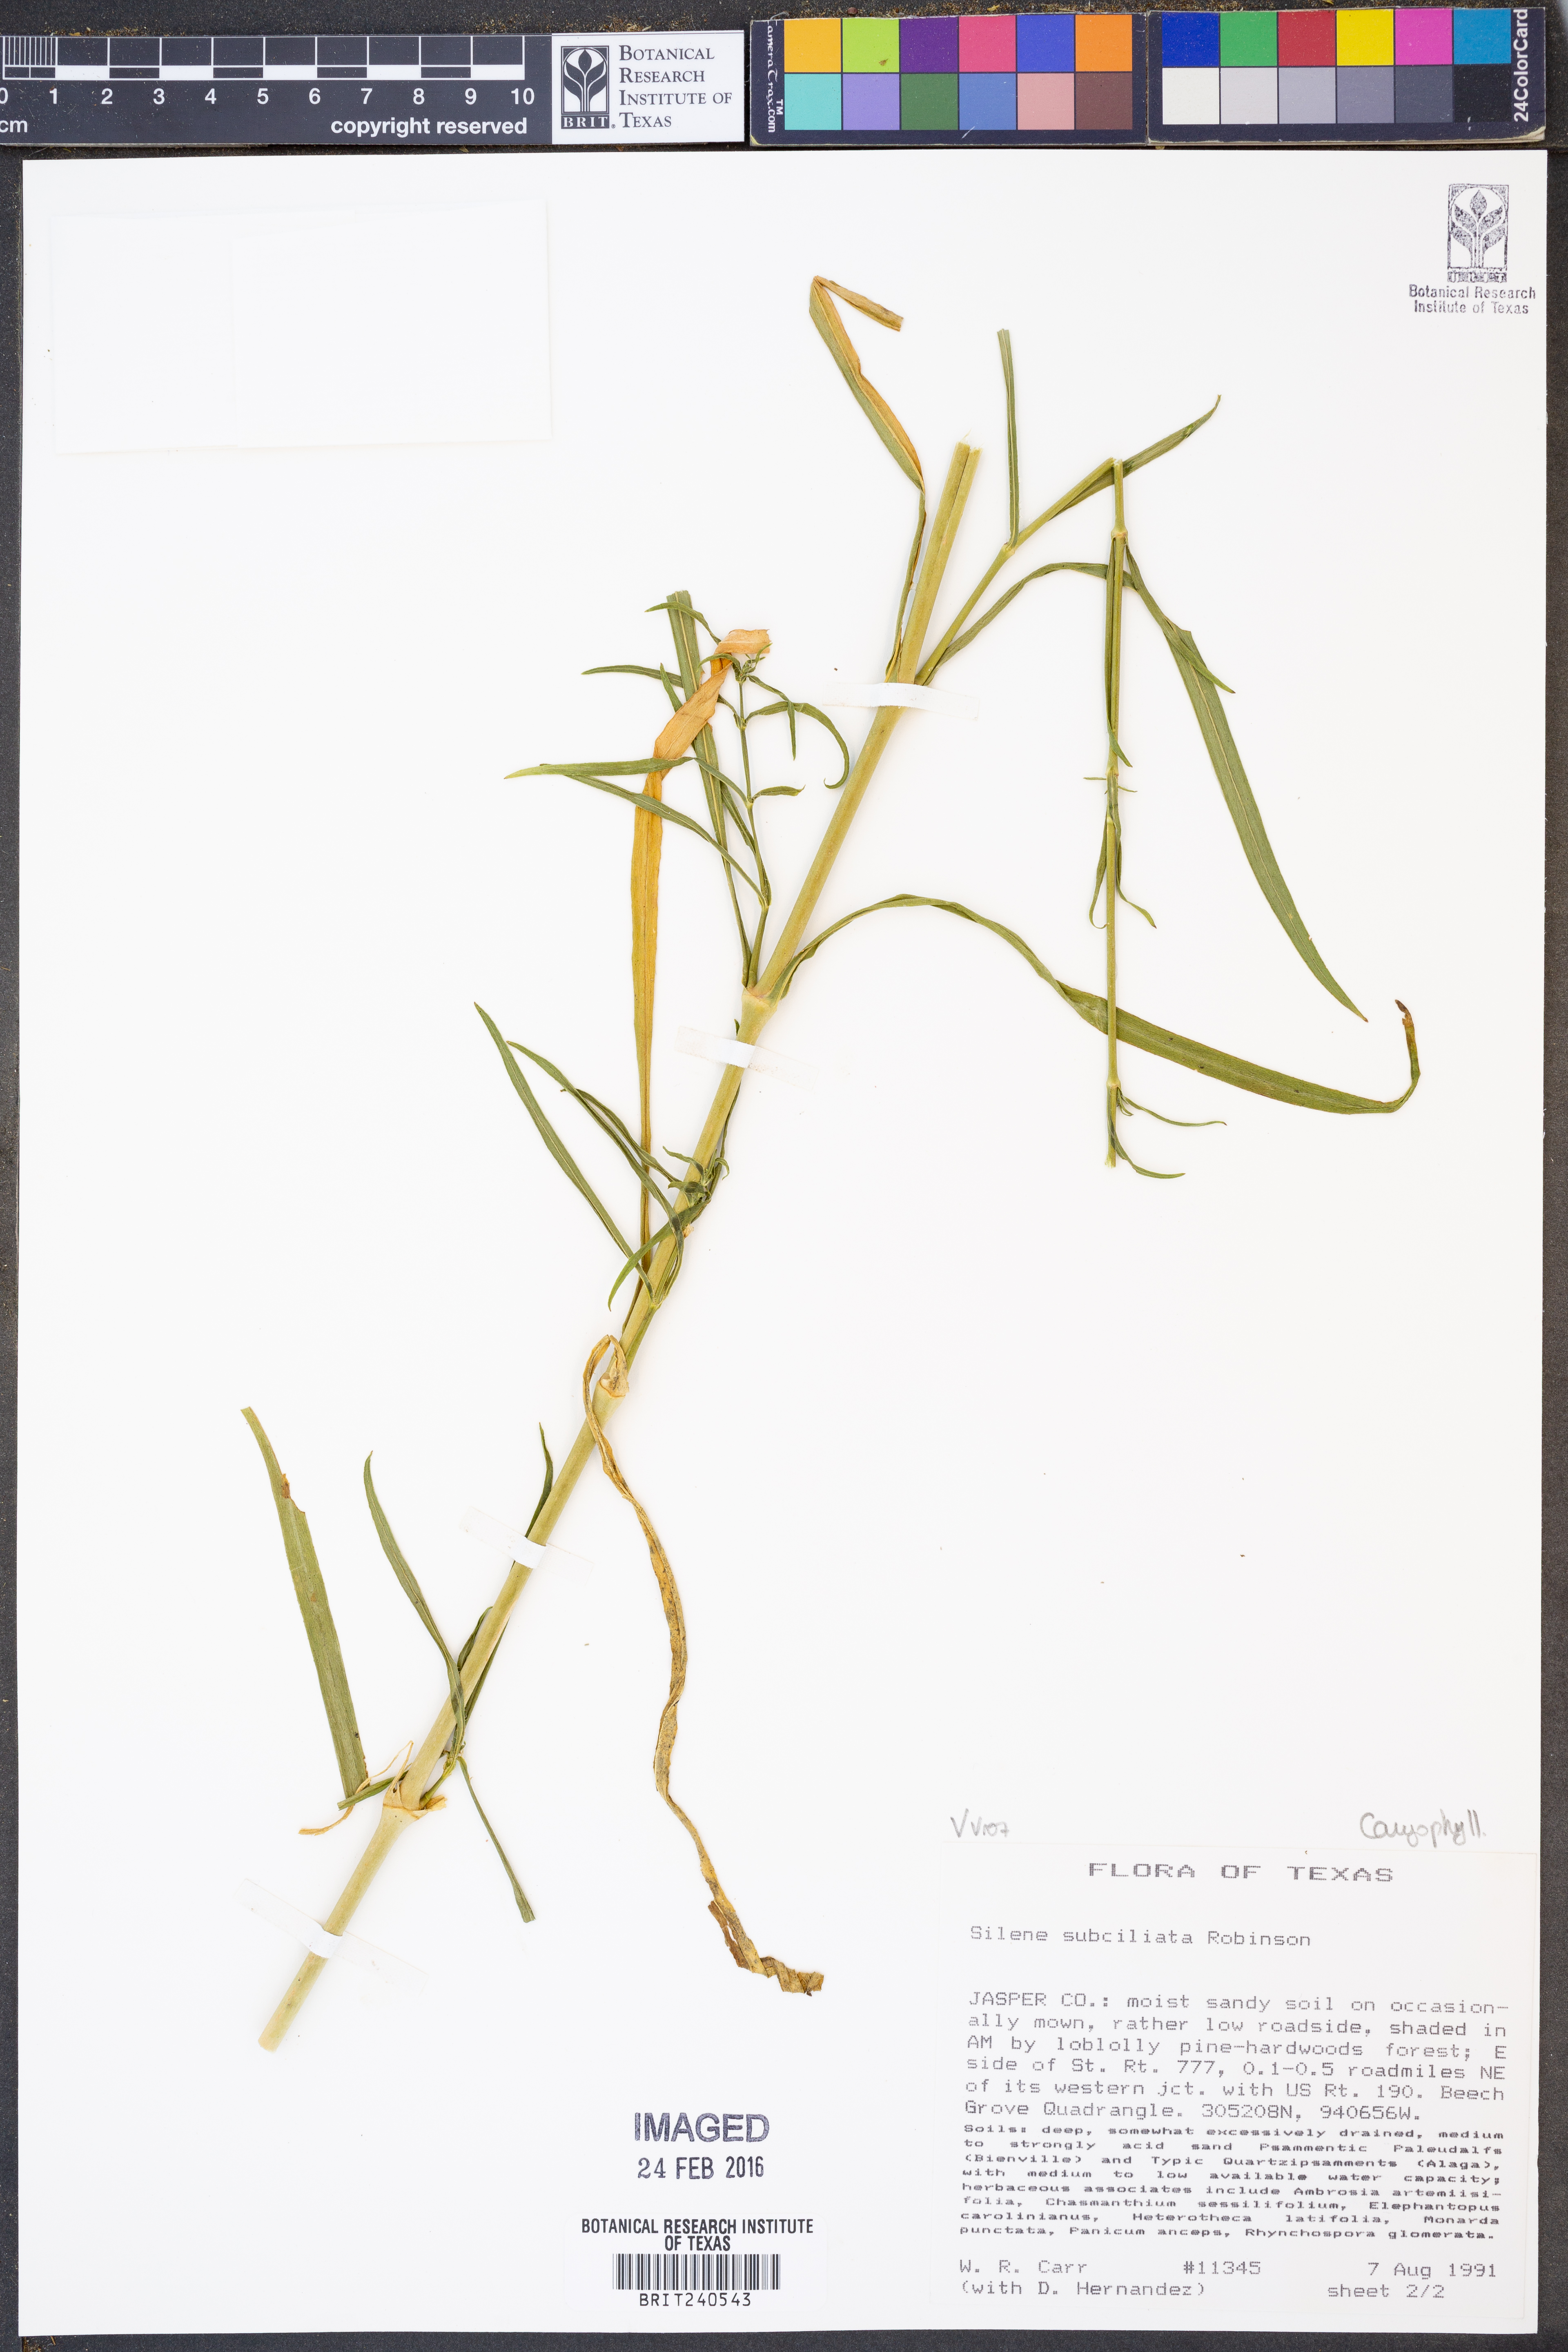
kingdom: Plantae
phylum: Tracheophyta
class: Magnoliopsida
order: Caryophyllales
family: Caryophyllaceae
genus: Silene
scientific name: Silene subciliata
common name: Prairie fire-pink
